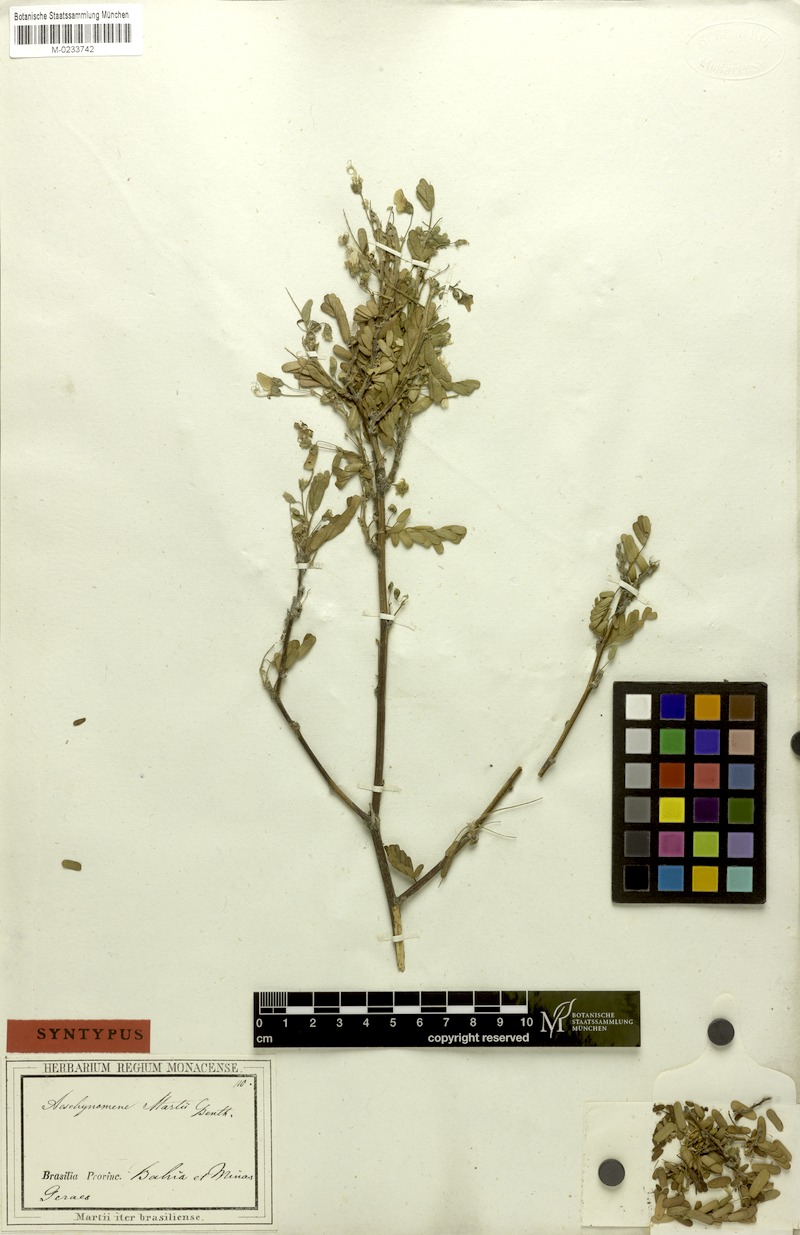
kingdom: Plantae
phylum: Tracheophyta
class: Magnoliopsida
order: Fabales
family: Fabaceae
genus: Ctenodon
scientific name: Ctenodon martii
